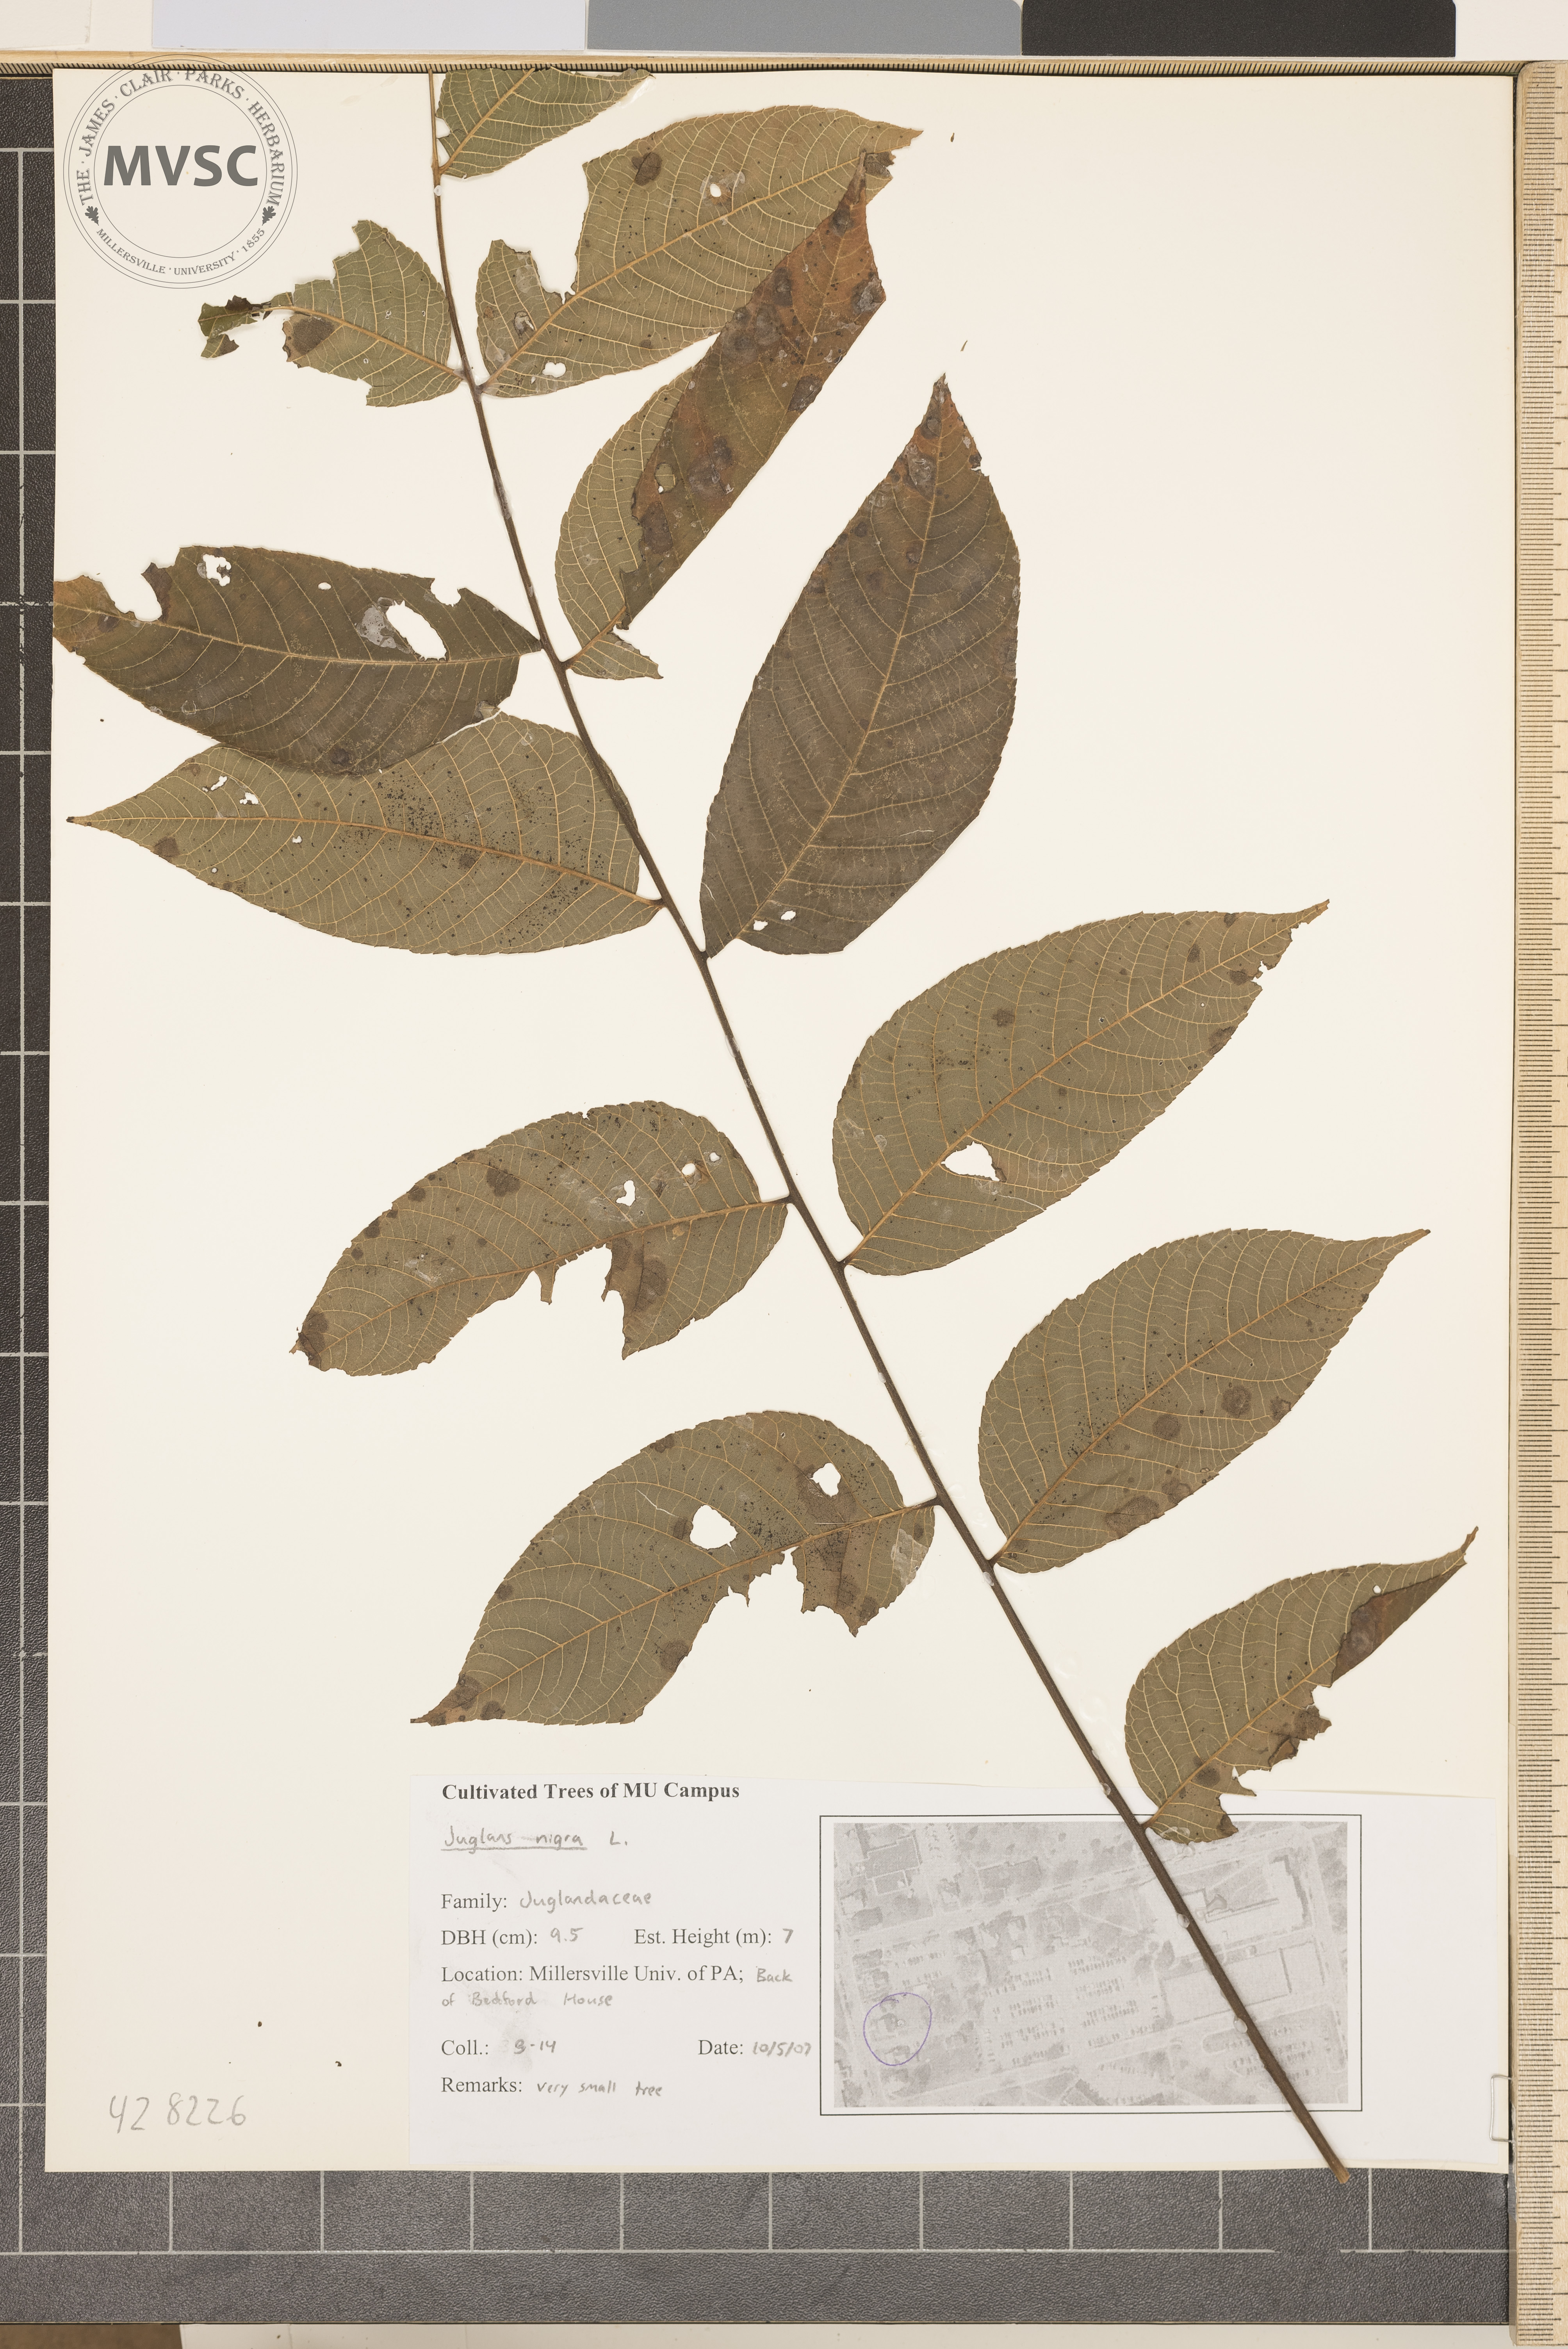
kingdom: Plantae
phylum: Tracheophyta
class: Magnoliopsida
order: Fagales
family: Juglandaceae
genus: Juglans
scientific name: Juglans nigra
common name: Black walnut
